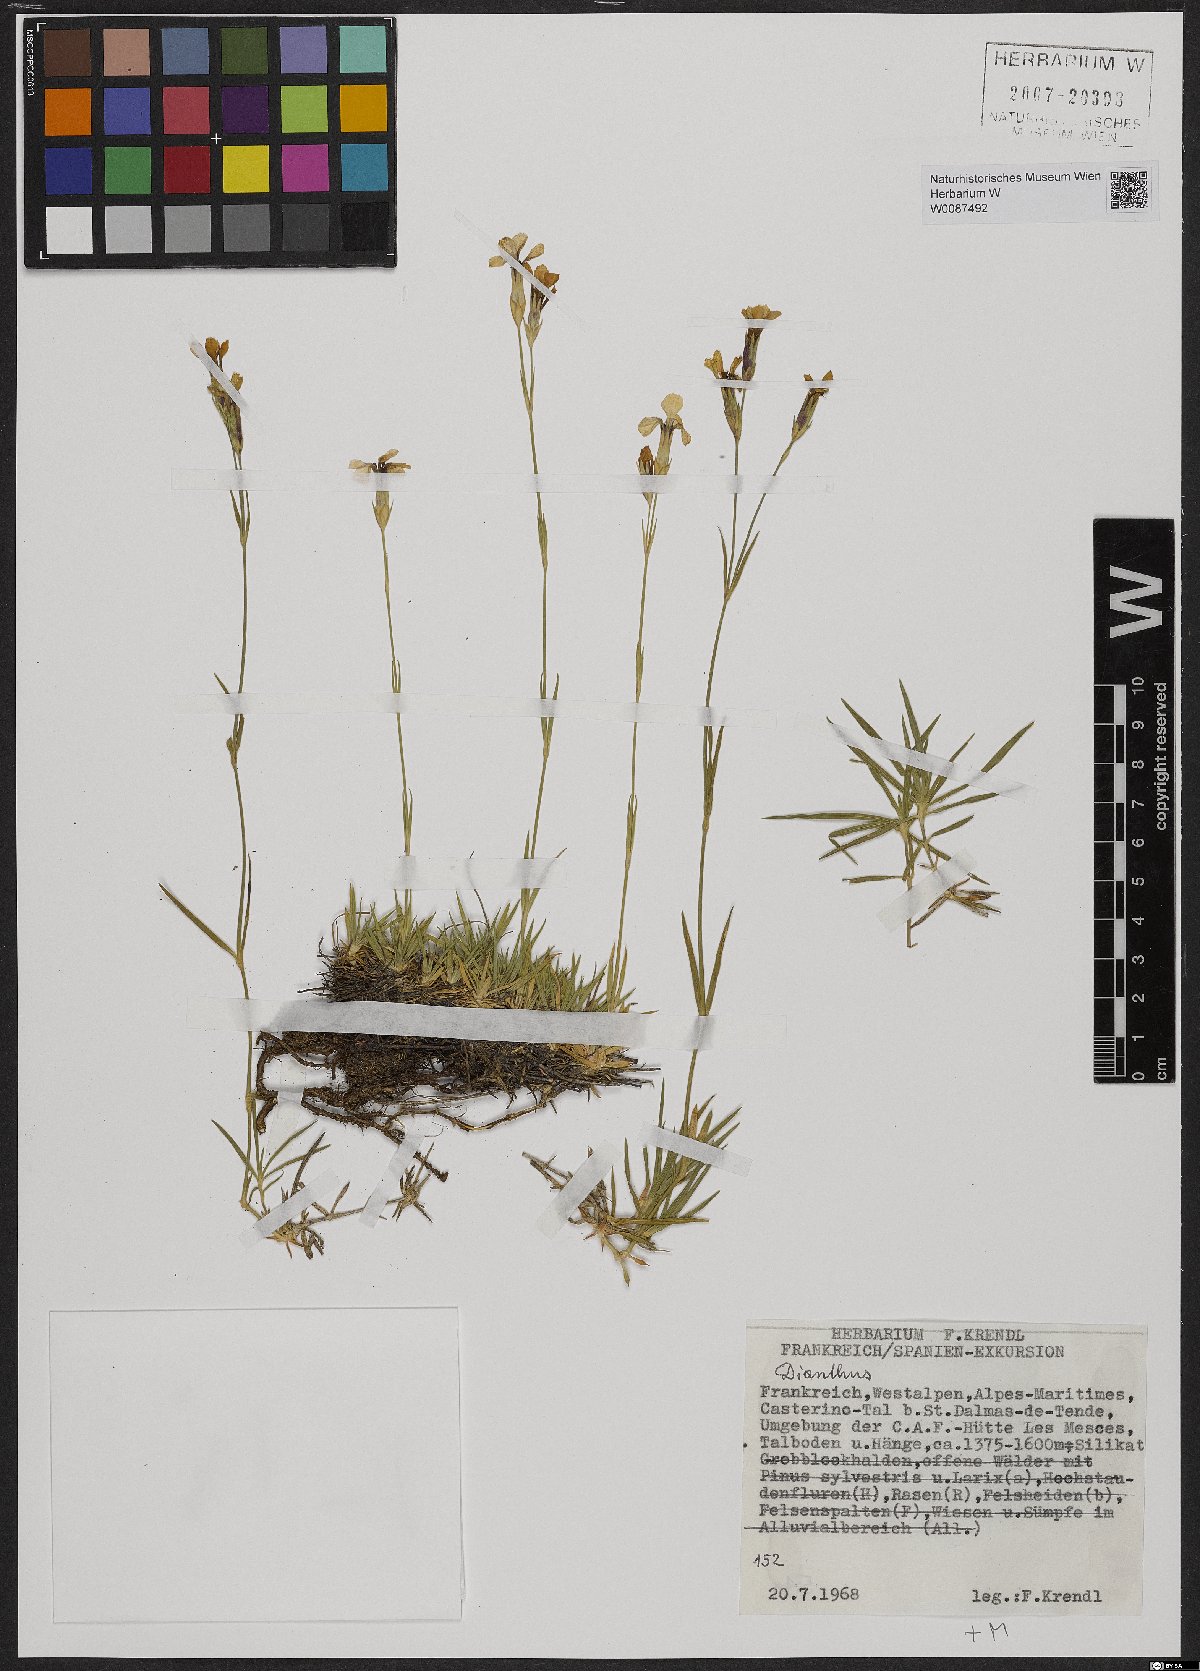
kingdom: Plantae
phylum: Tracheophyta
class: Magnoliopsida
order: Caryophyllales
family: Caryophyllaceae
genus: Dianthus
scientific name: Dianthus
